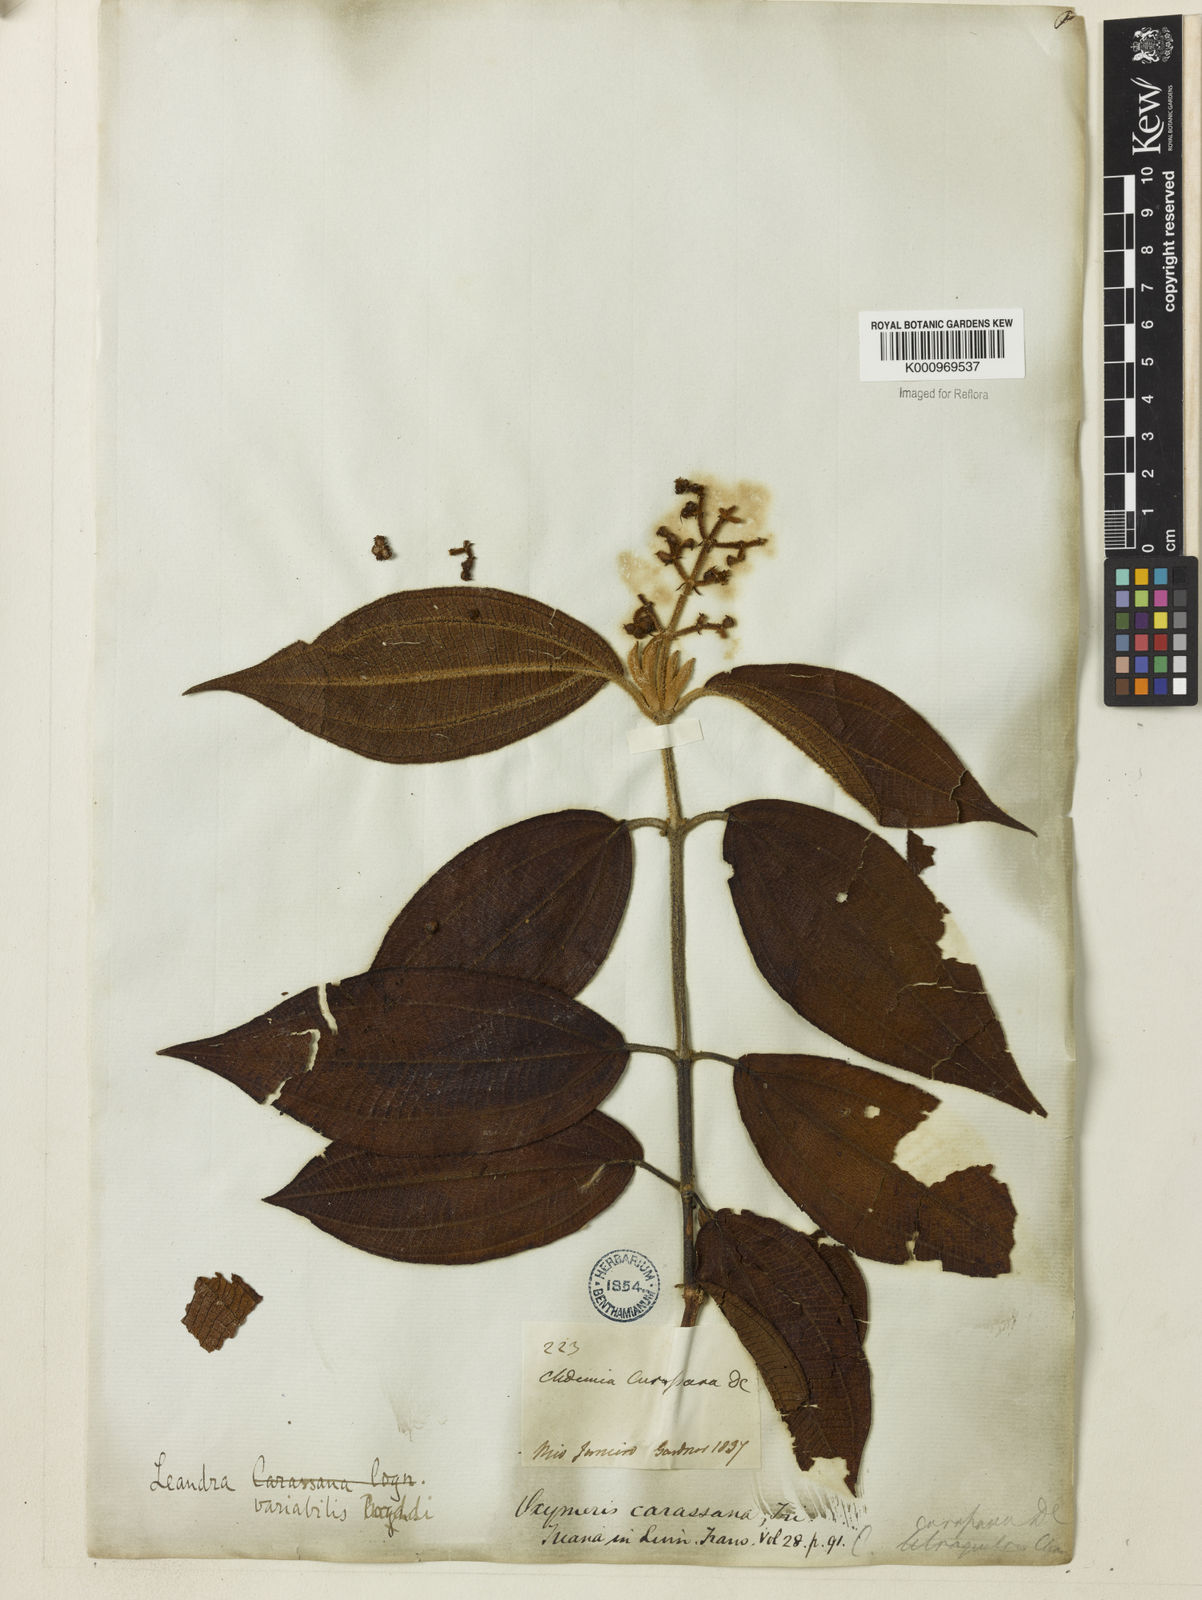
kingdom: Plantae
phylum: Tracheophyta
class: Magnoliopsida
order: Myrtales
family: Melastomataceae
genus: Miconia
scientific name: Miconia dasytricha
